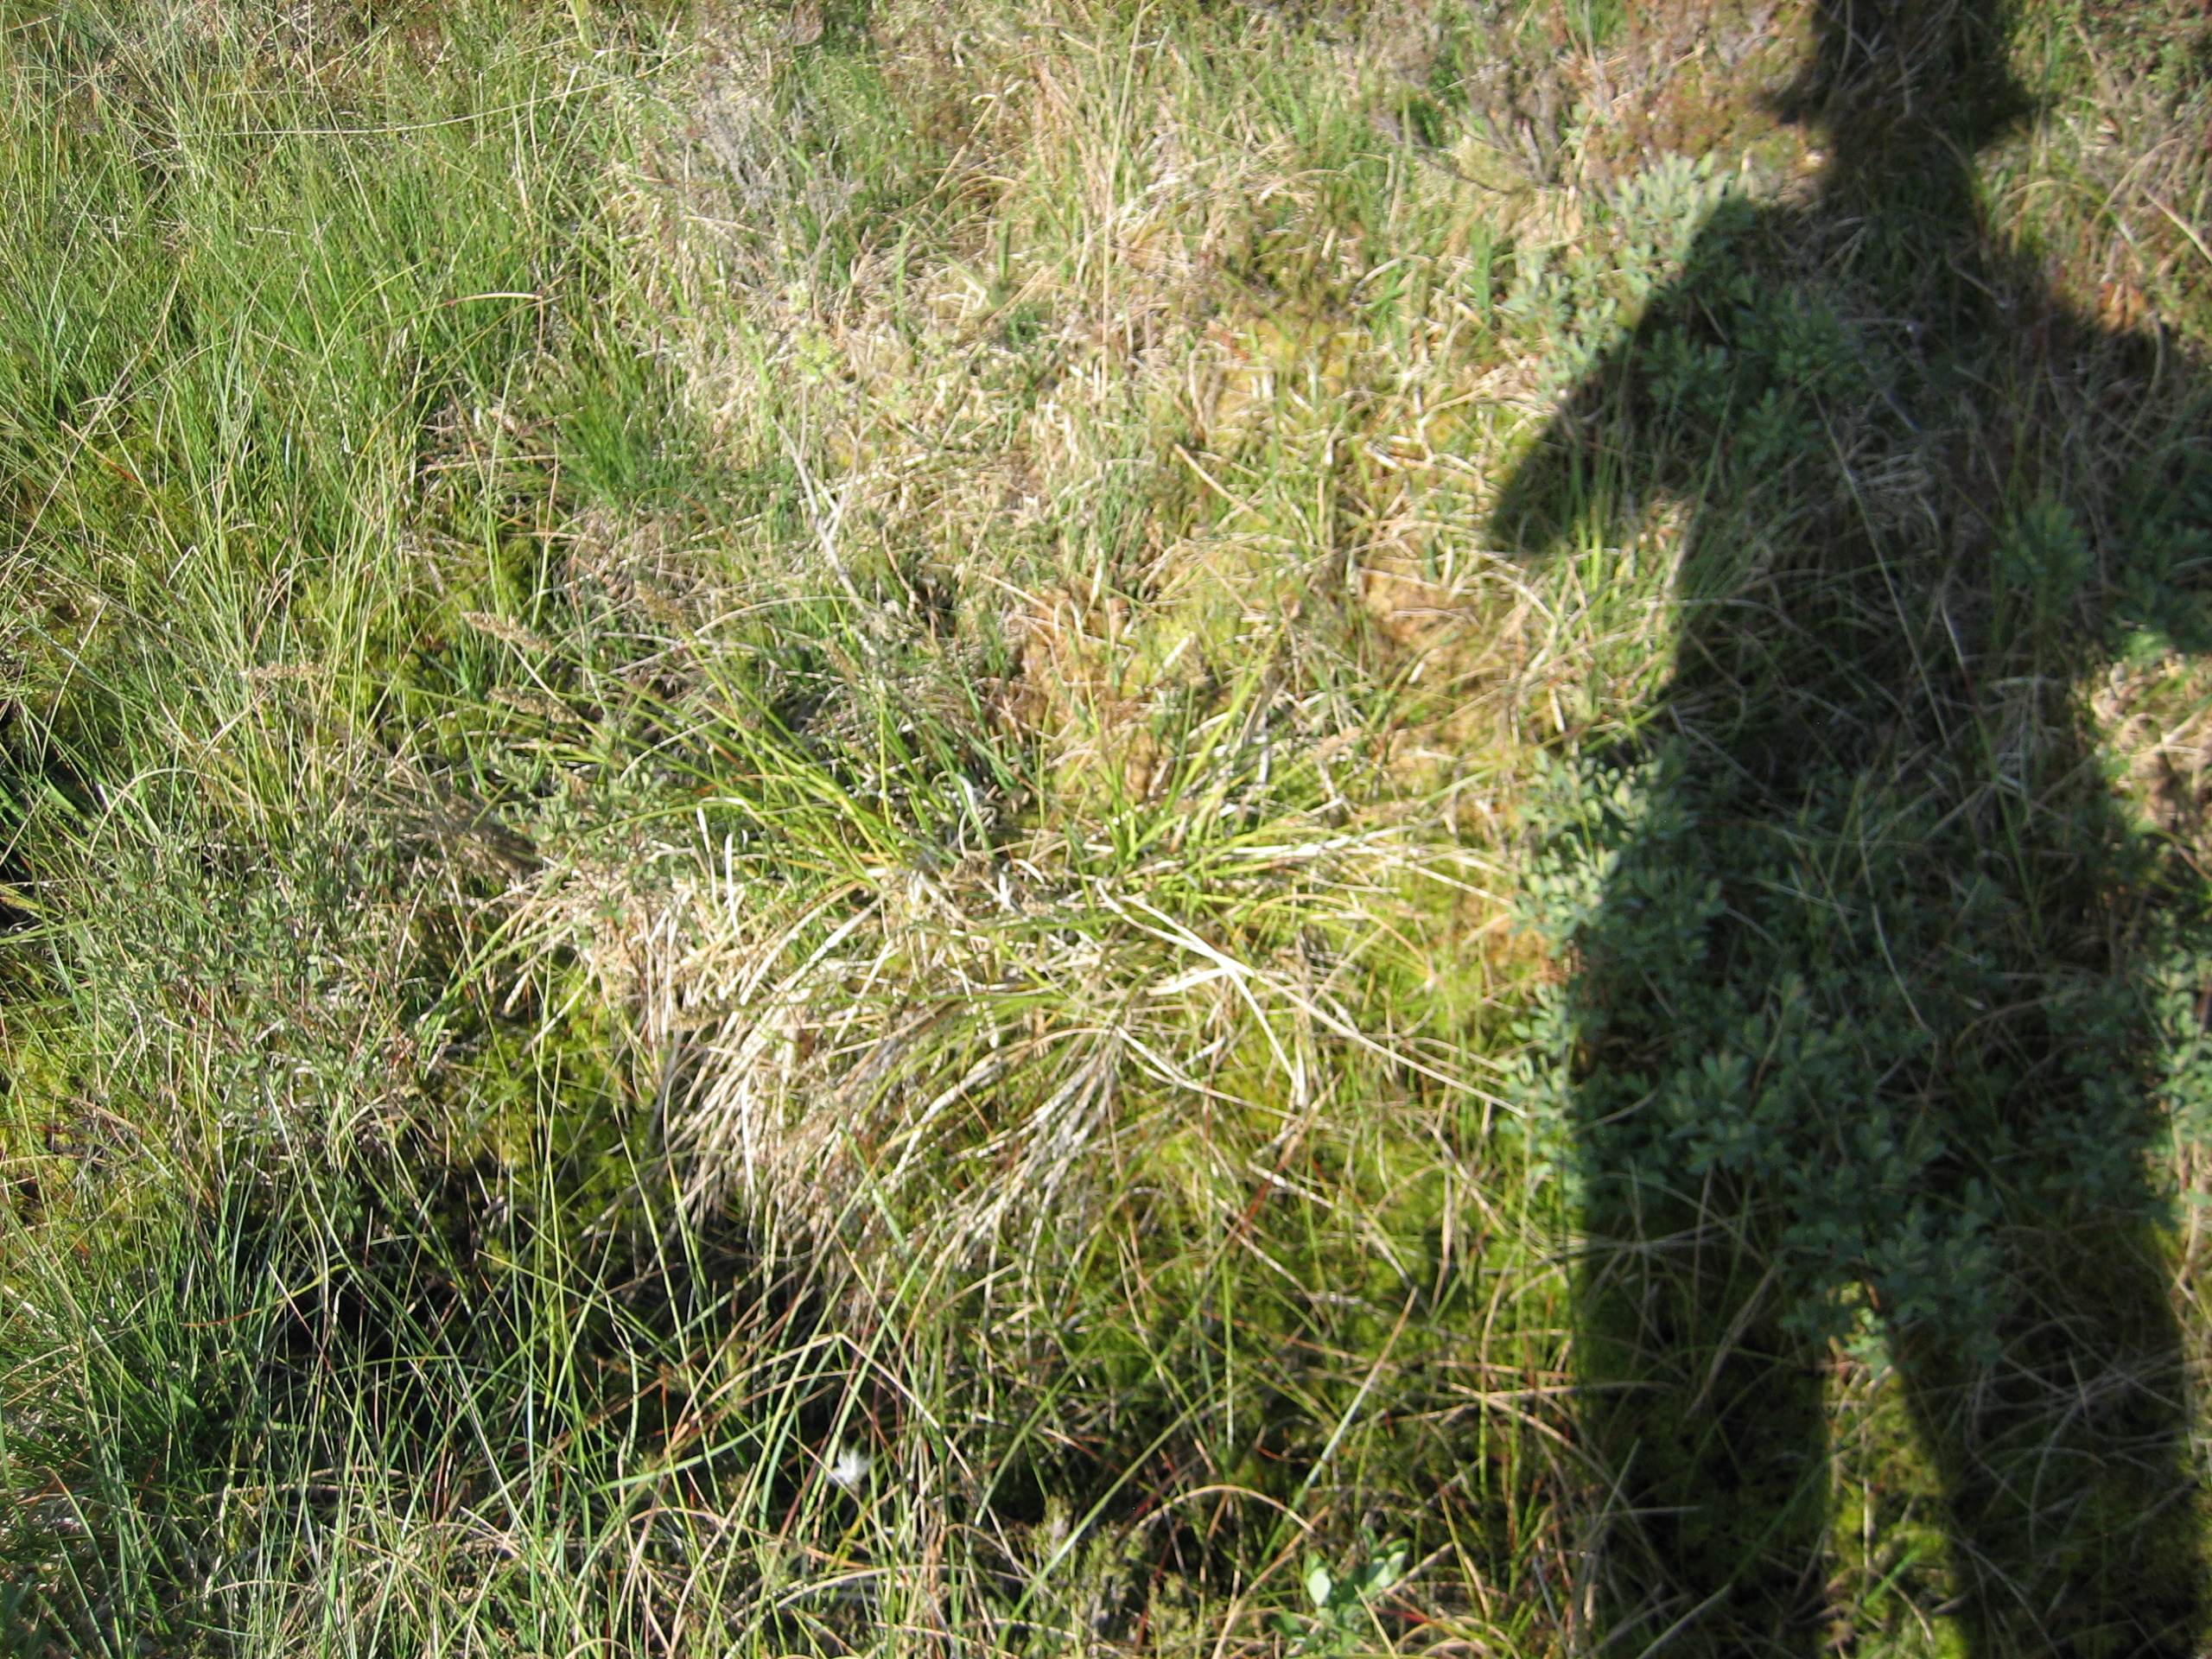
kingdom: Plantae
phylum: Tracheophyta
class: Liliopsida
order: Poales
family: Cyperaceae
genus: Carex
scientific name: Carex paniculata
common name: Top-star
